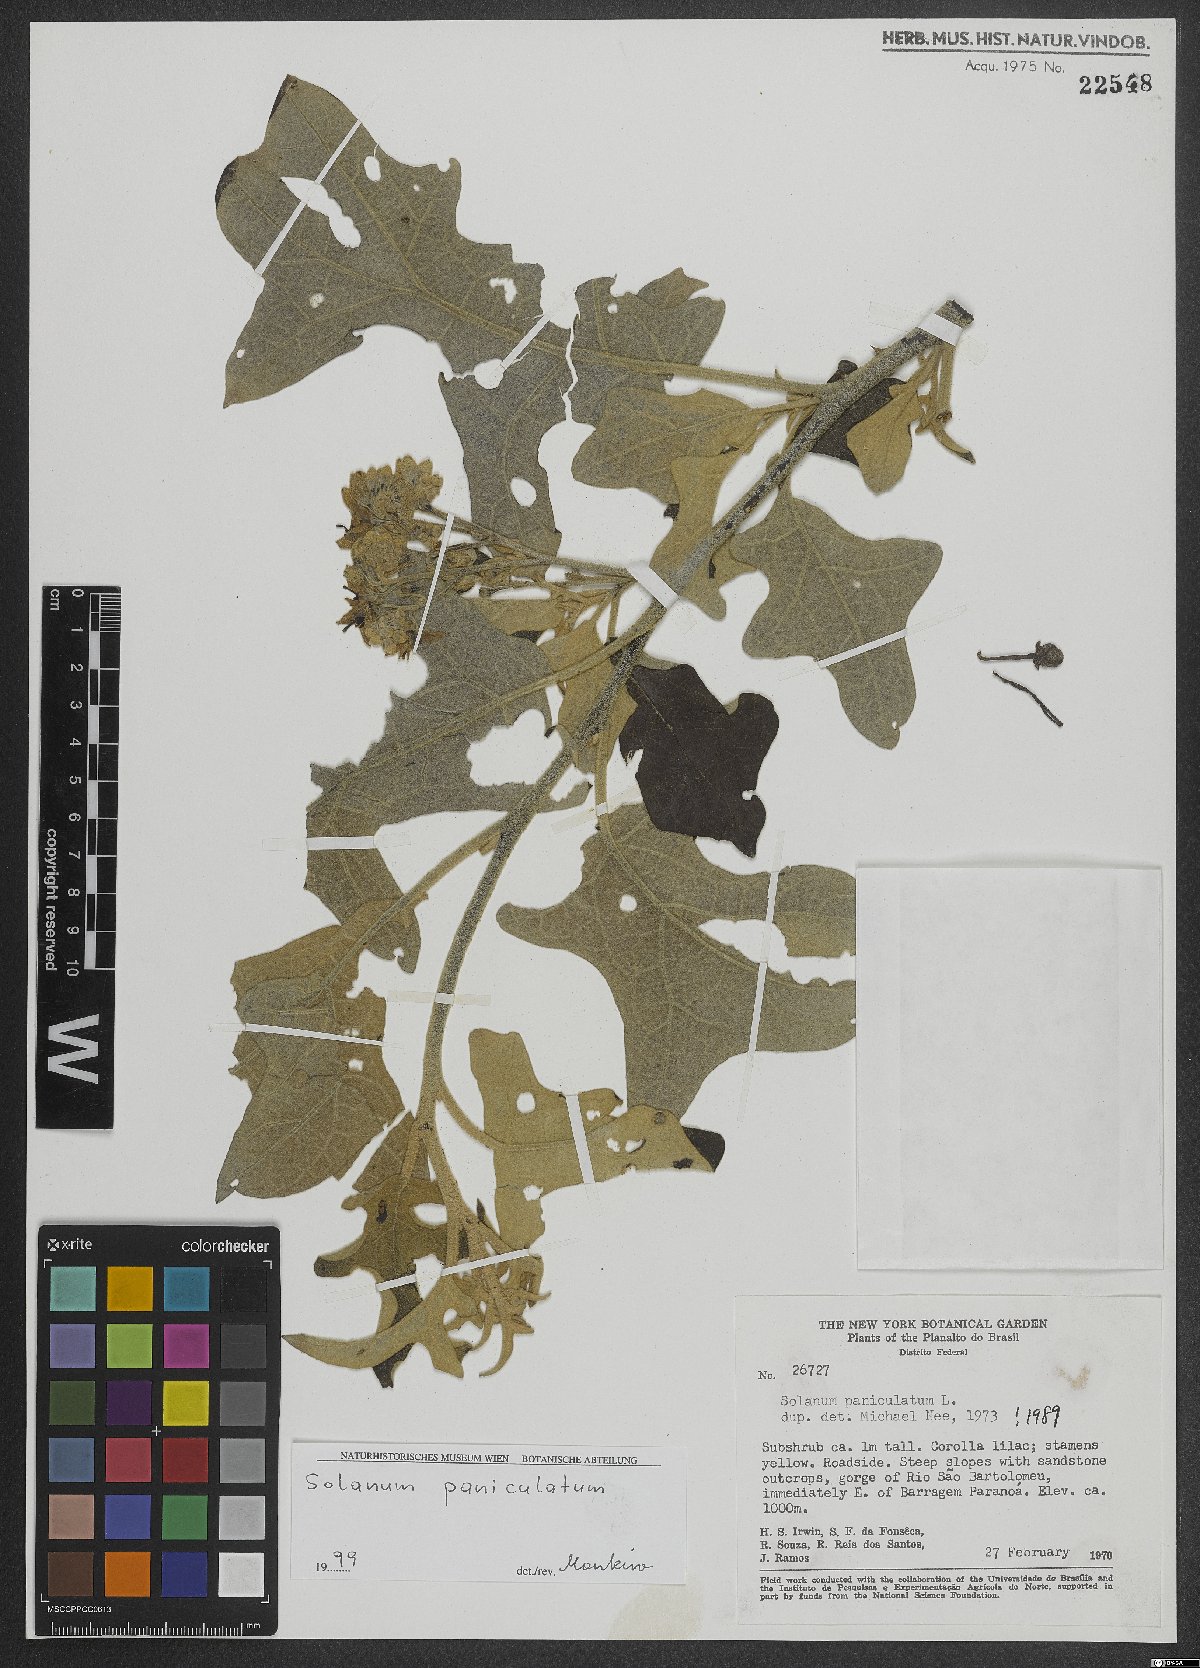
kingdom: Plantae
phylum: Tracheophyta
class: Magnoliopsida
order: Solanales
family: Solanaceae
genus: Solanum
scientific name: Solanum paniculatum
